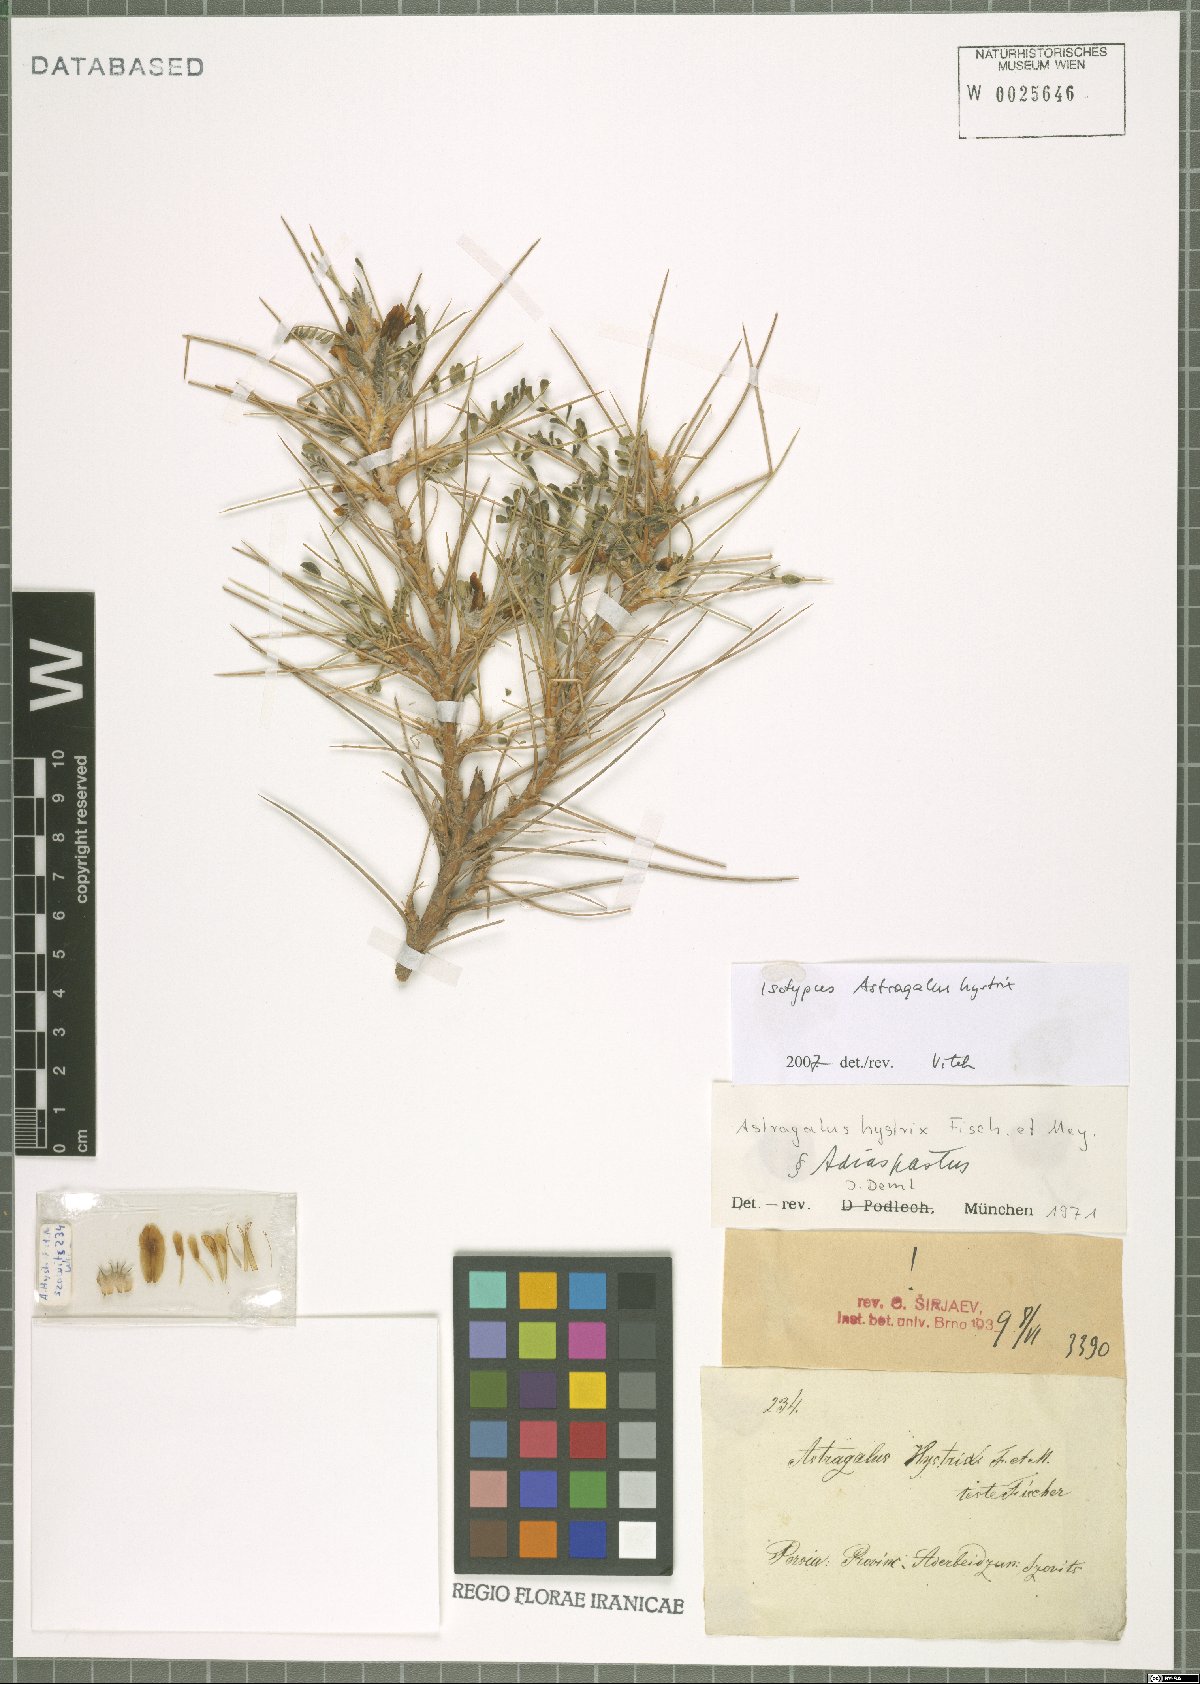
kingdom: Plantae
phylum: Tracheophyta
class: Magnoliopsida
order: Fabales
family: Fabaceae
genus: Astragalus
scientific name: Astragalus hystrix
